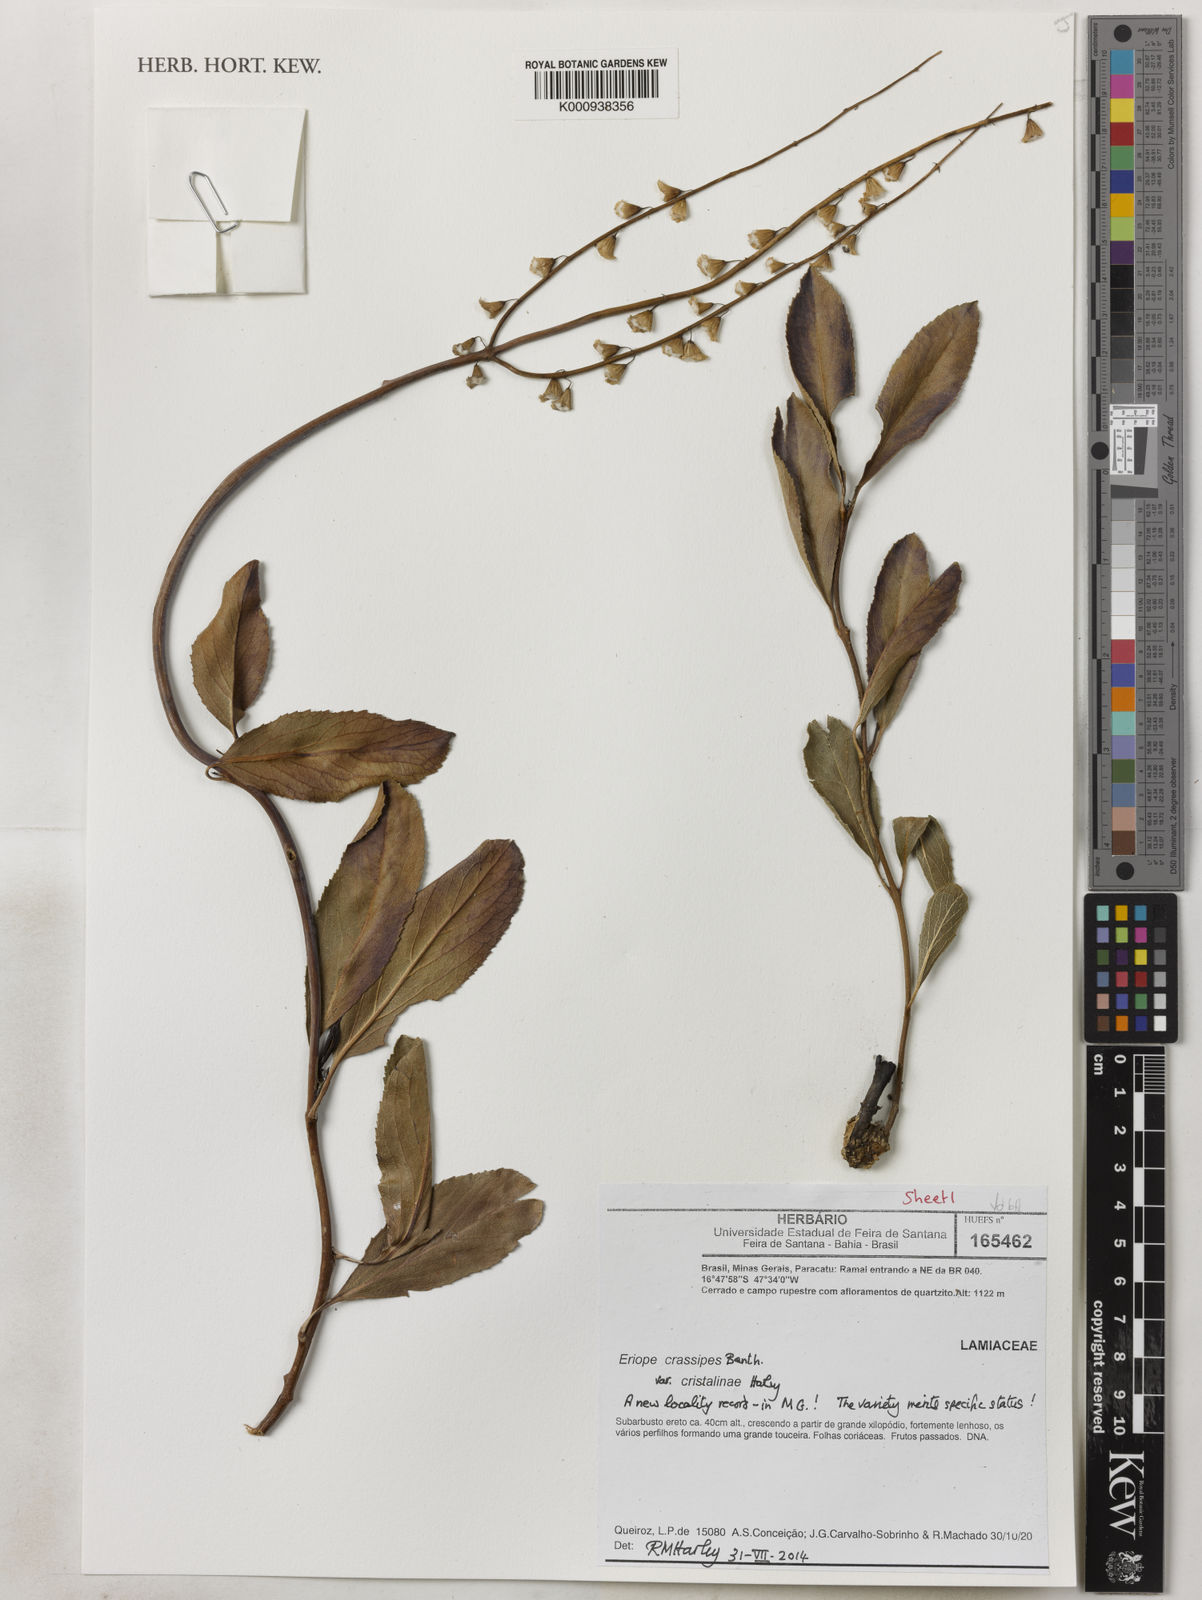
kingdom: Plantae
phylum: Tracheophyta
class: Magnoliopsida
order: Lamiales
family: Lamiaceae
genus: Eriope
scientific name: Eriope crassipes
